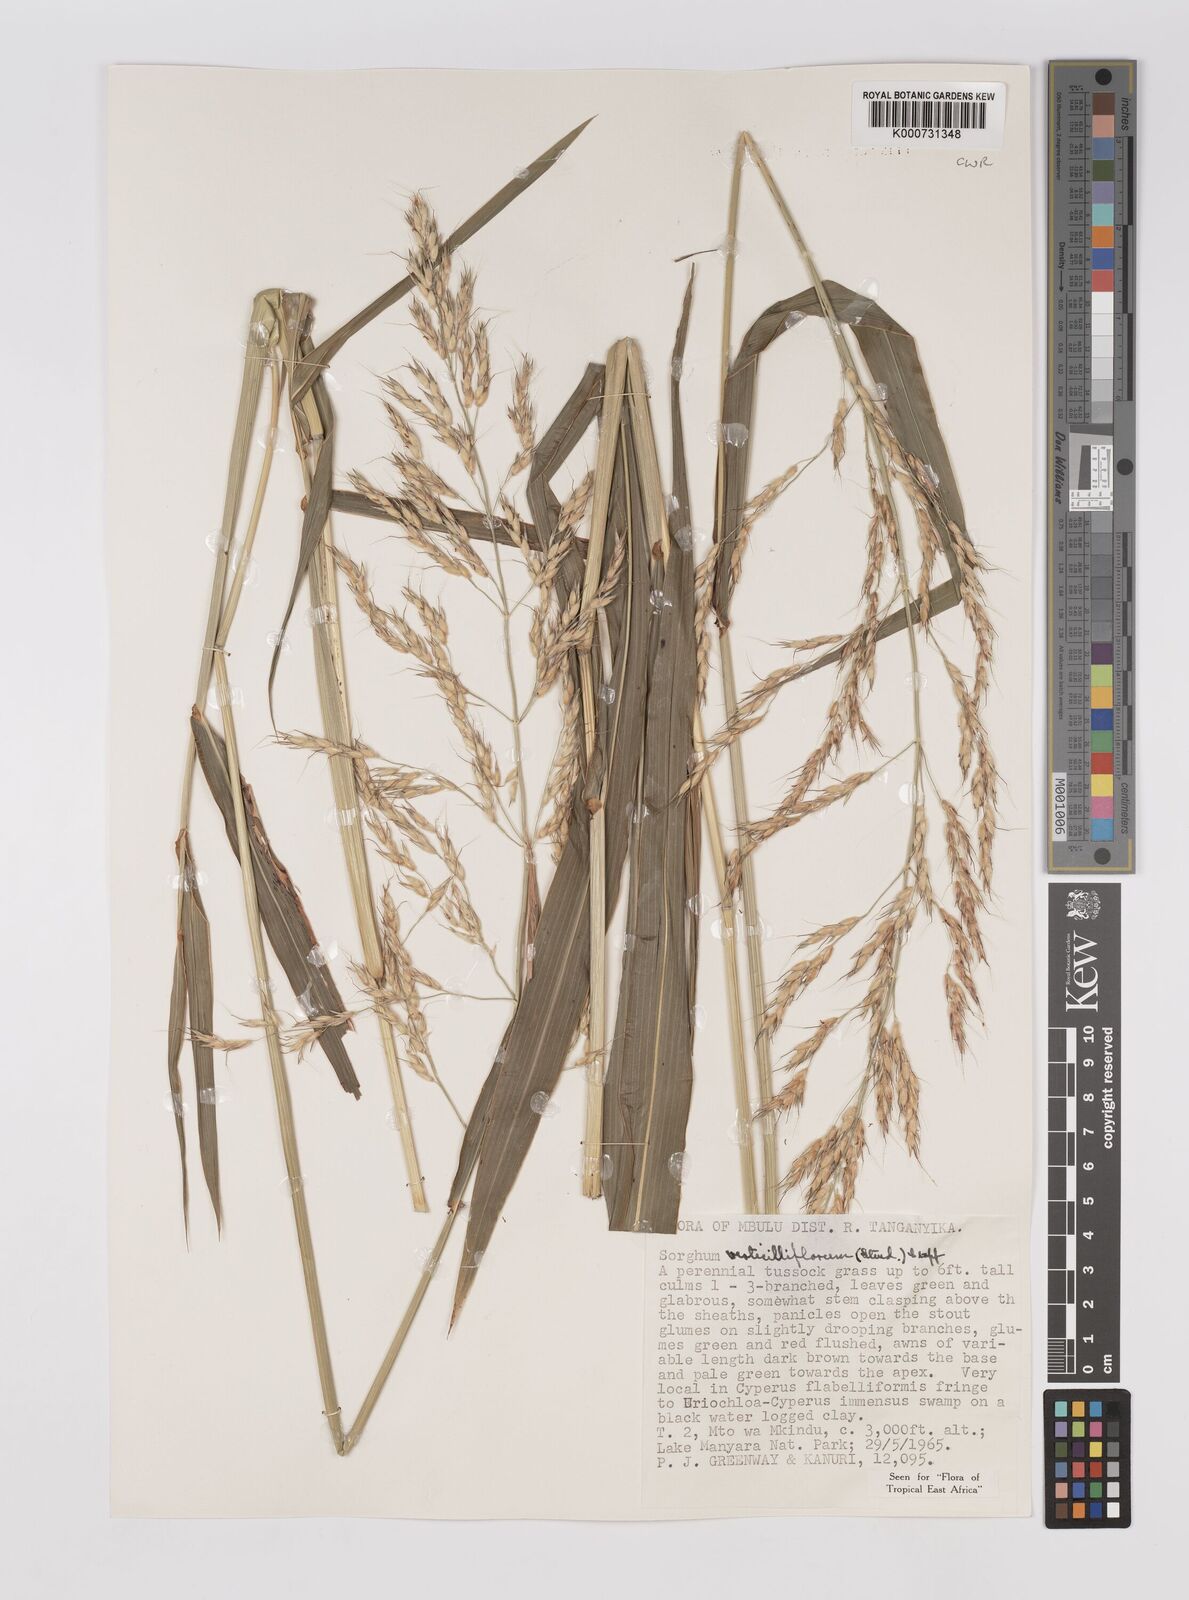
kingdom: Plantae
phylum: Tracheophyta
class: Liliopsida
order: Poales
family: Poaceae
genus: Sorghum
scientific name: Sorghum arundinaceum
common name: Sorghum
